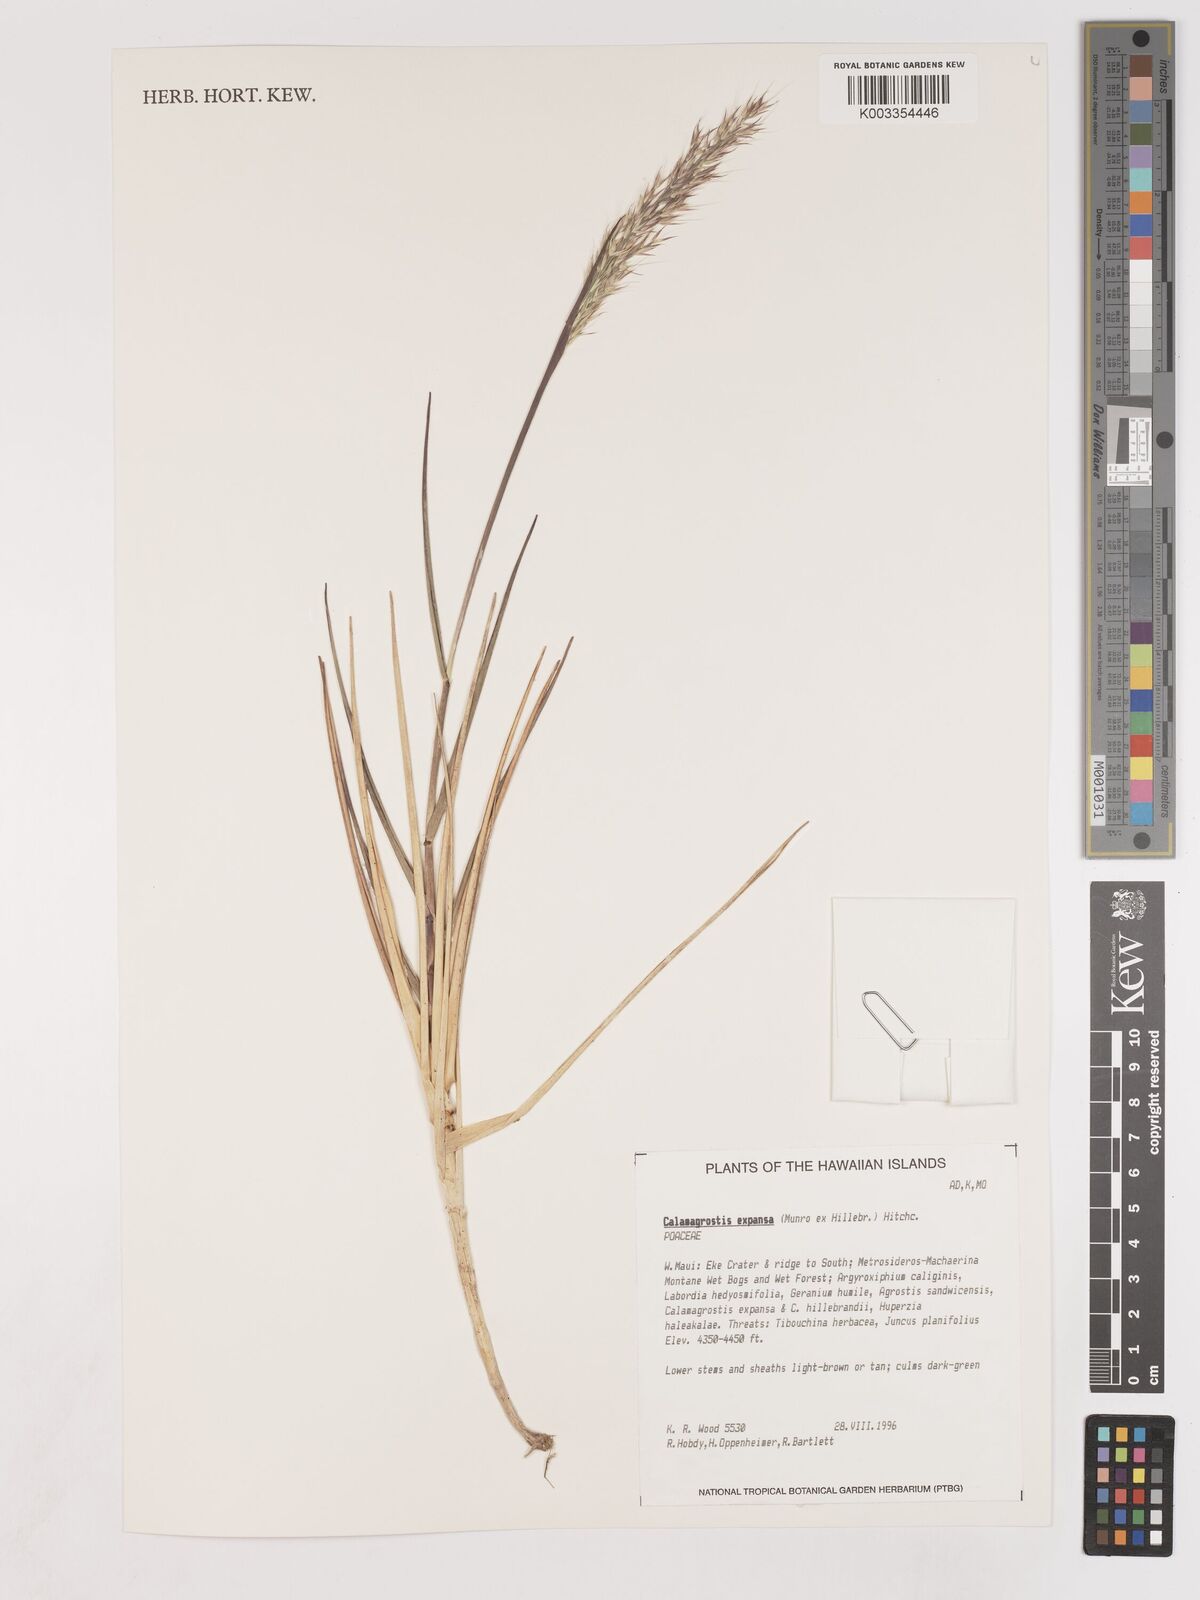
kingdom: Plantae
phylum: Tracheophyta
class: Liliopsida
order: Poales
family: Poaceae
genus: Calamagrostis
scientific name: Calamagrostis expansa
